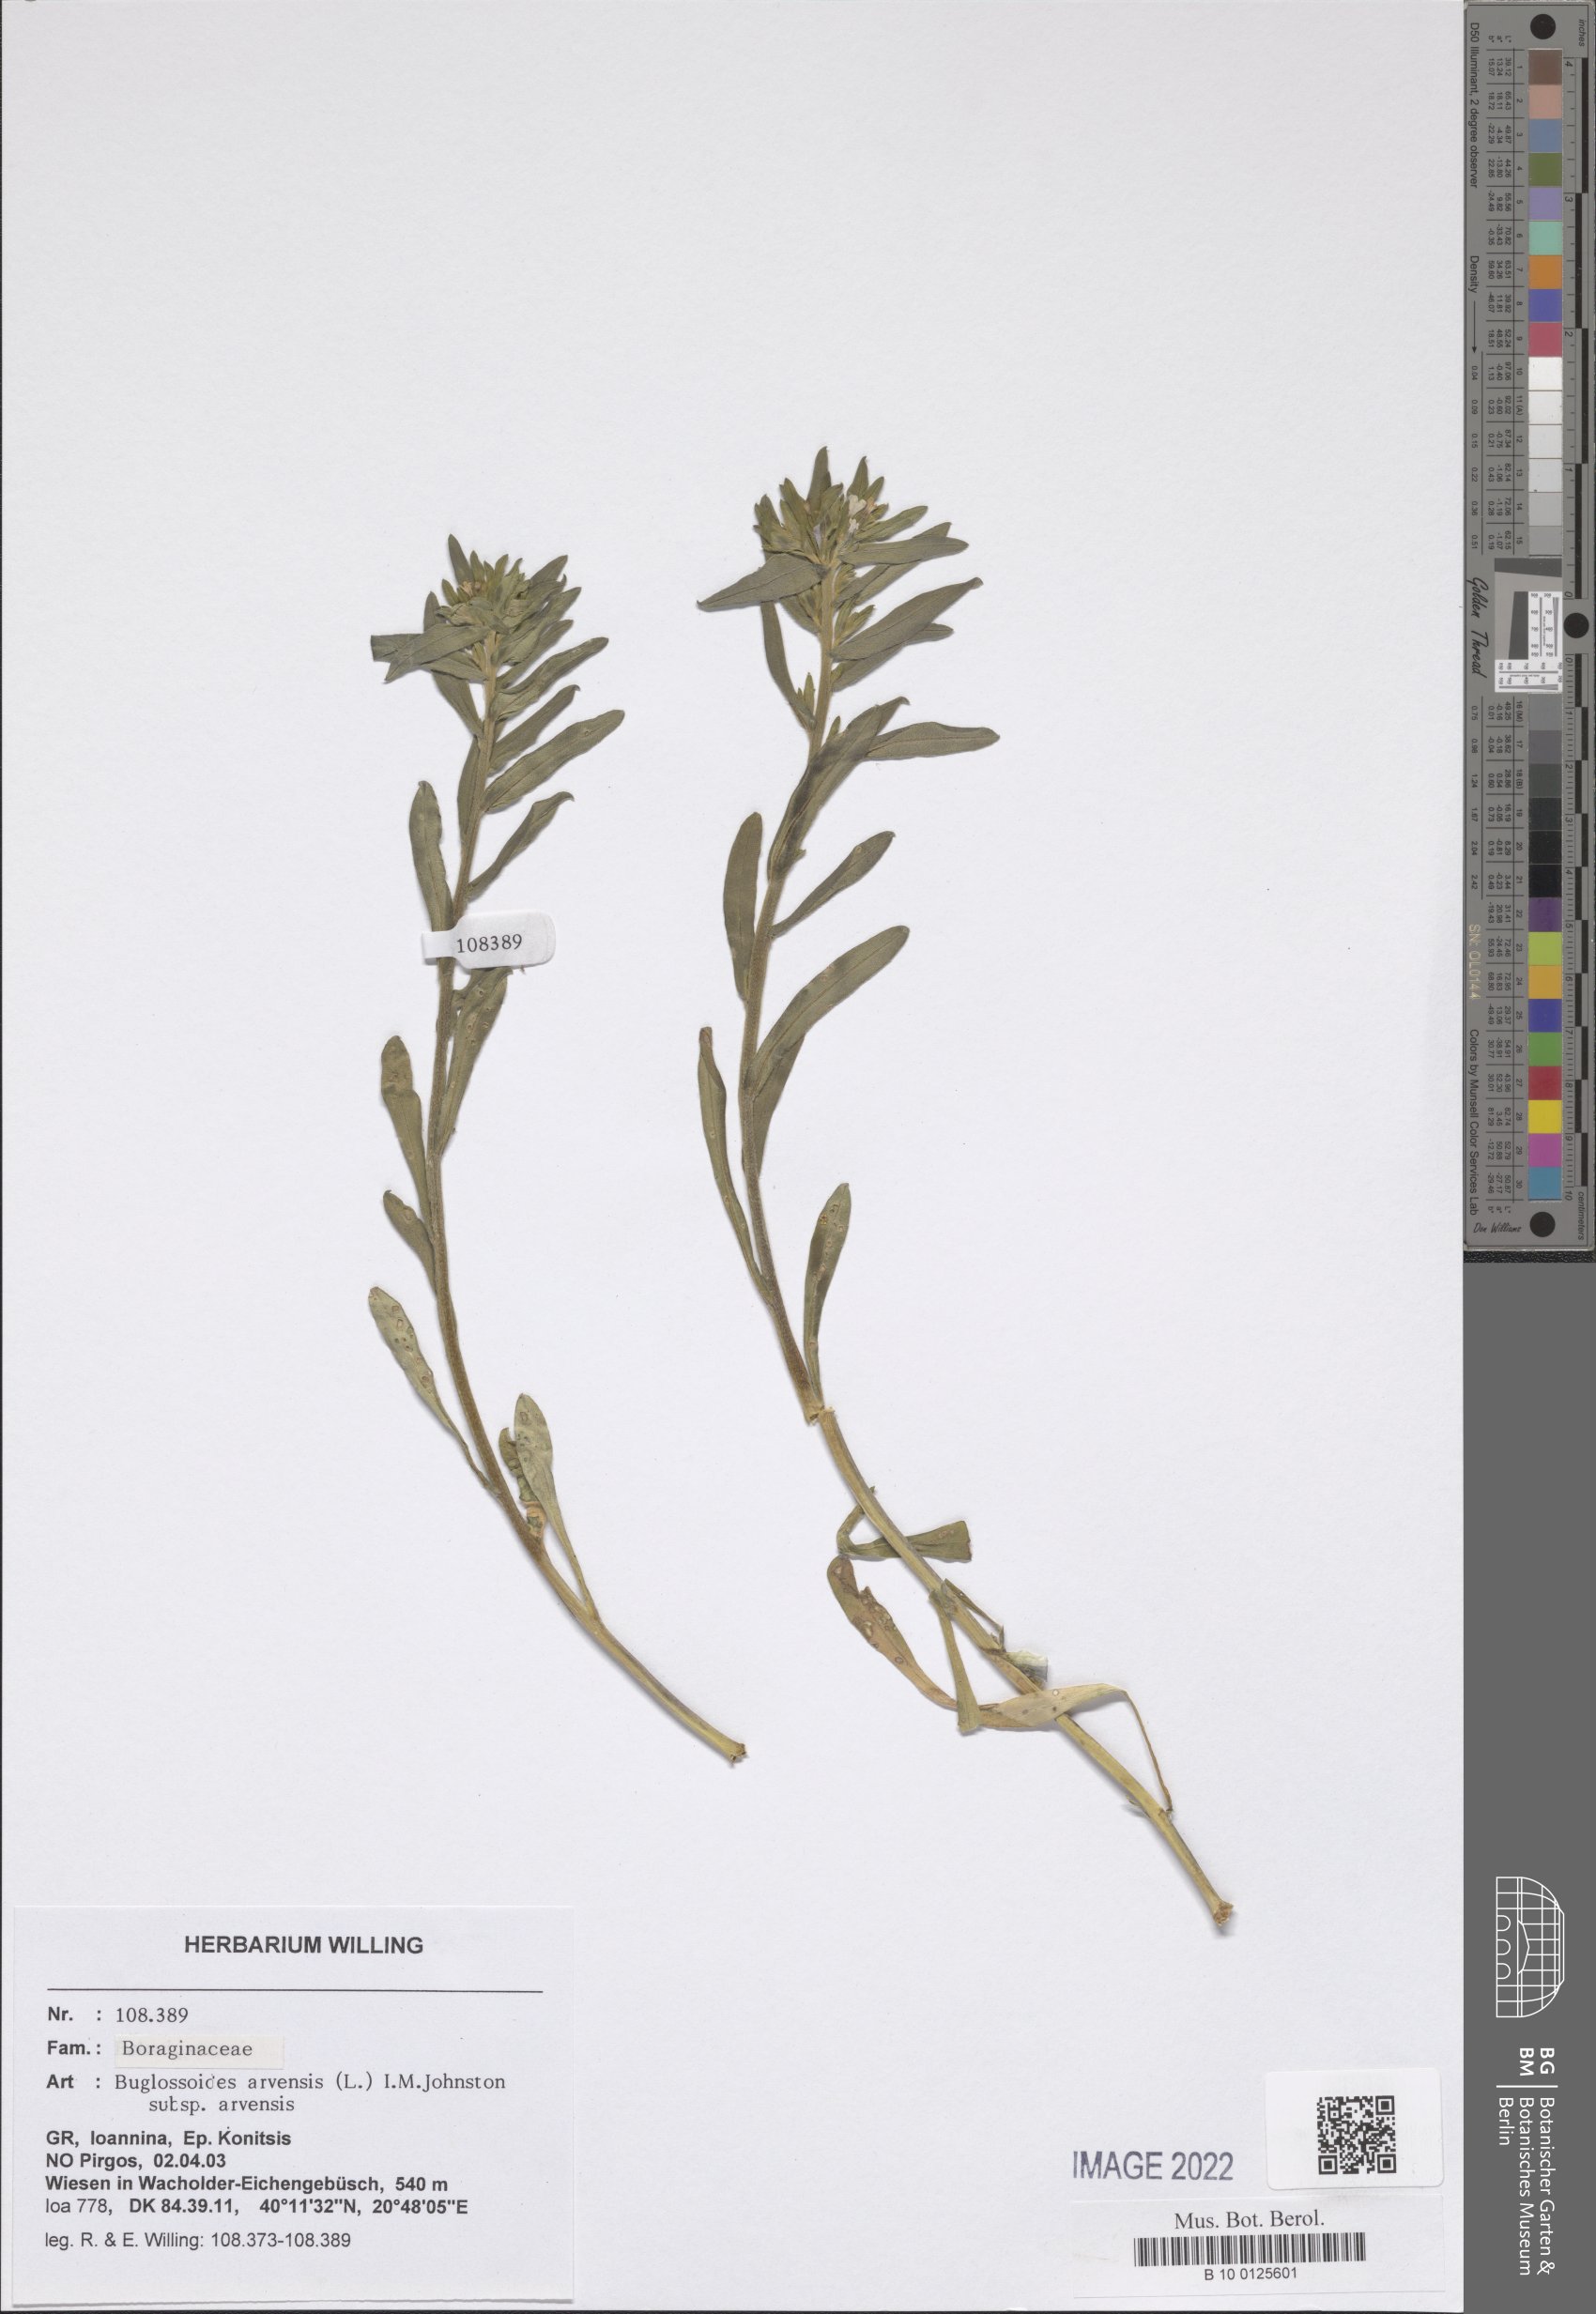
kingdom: Plantae
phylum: Tracheophyta
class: Magnoliopsida
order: Boraginales
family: Boraginaceae
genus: Buglossoides
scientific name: Buglossoides arvensis
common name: Corn gromwell
